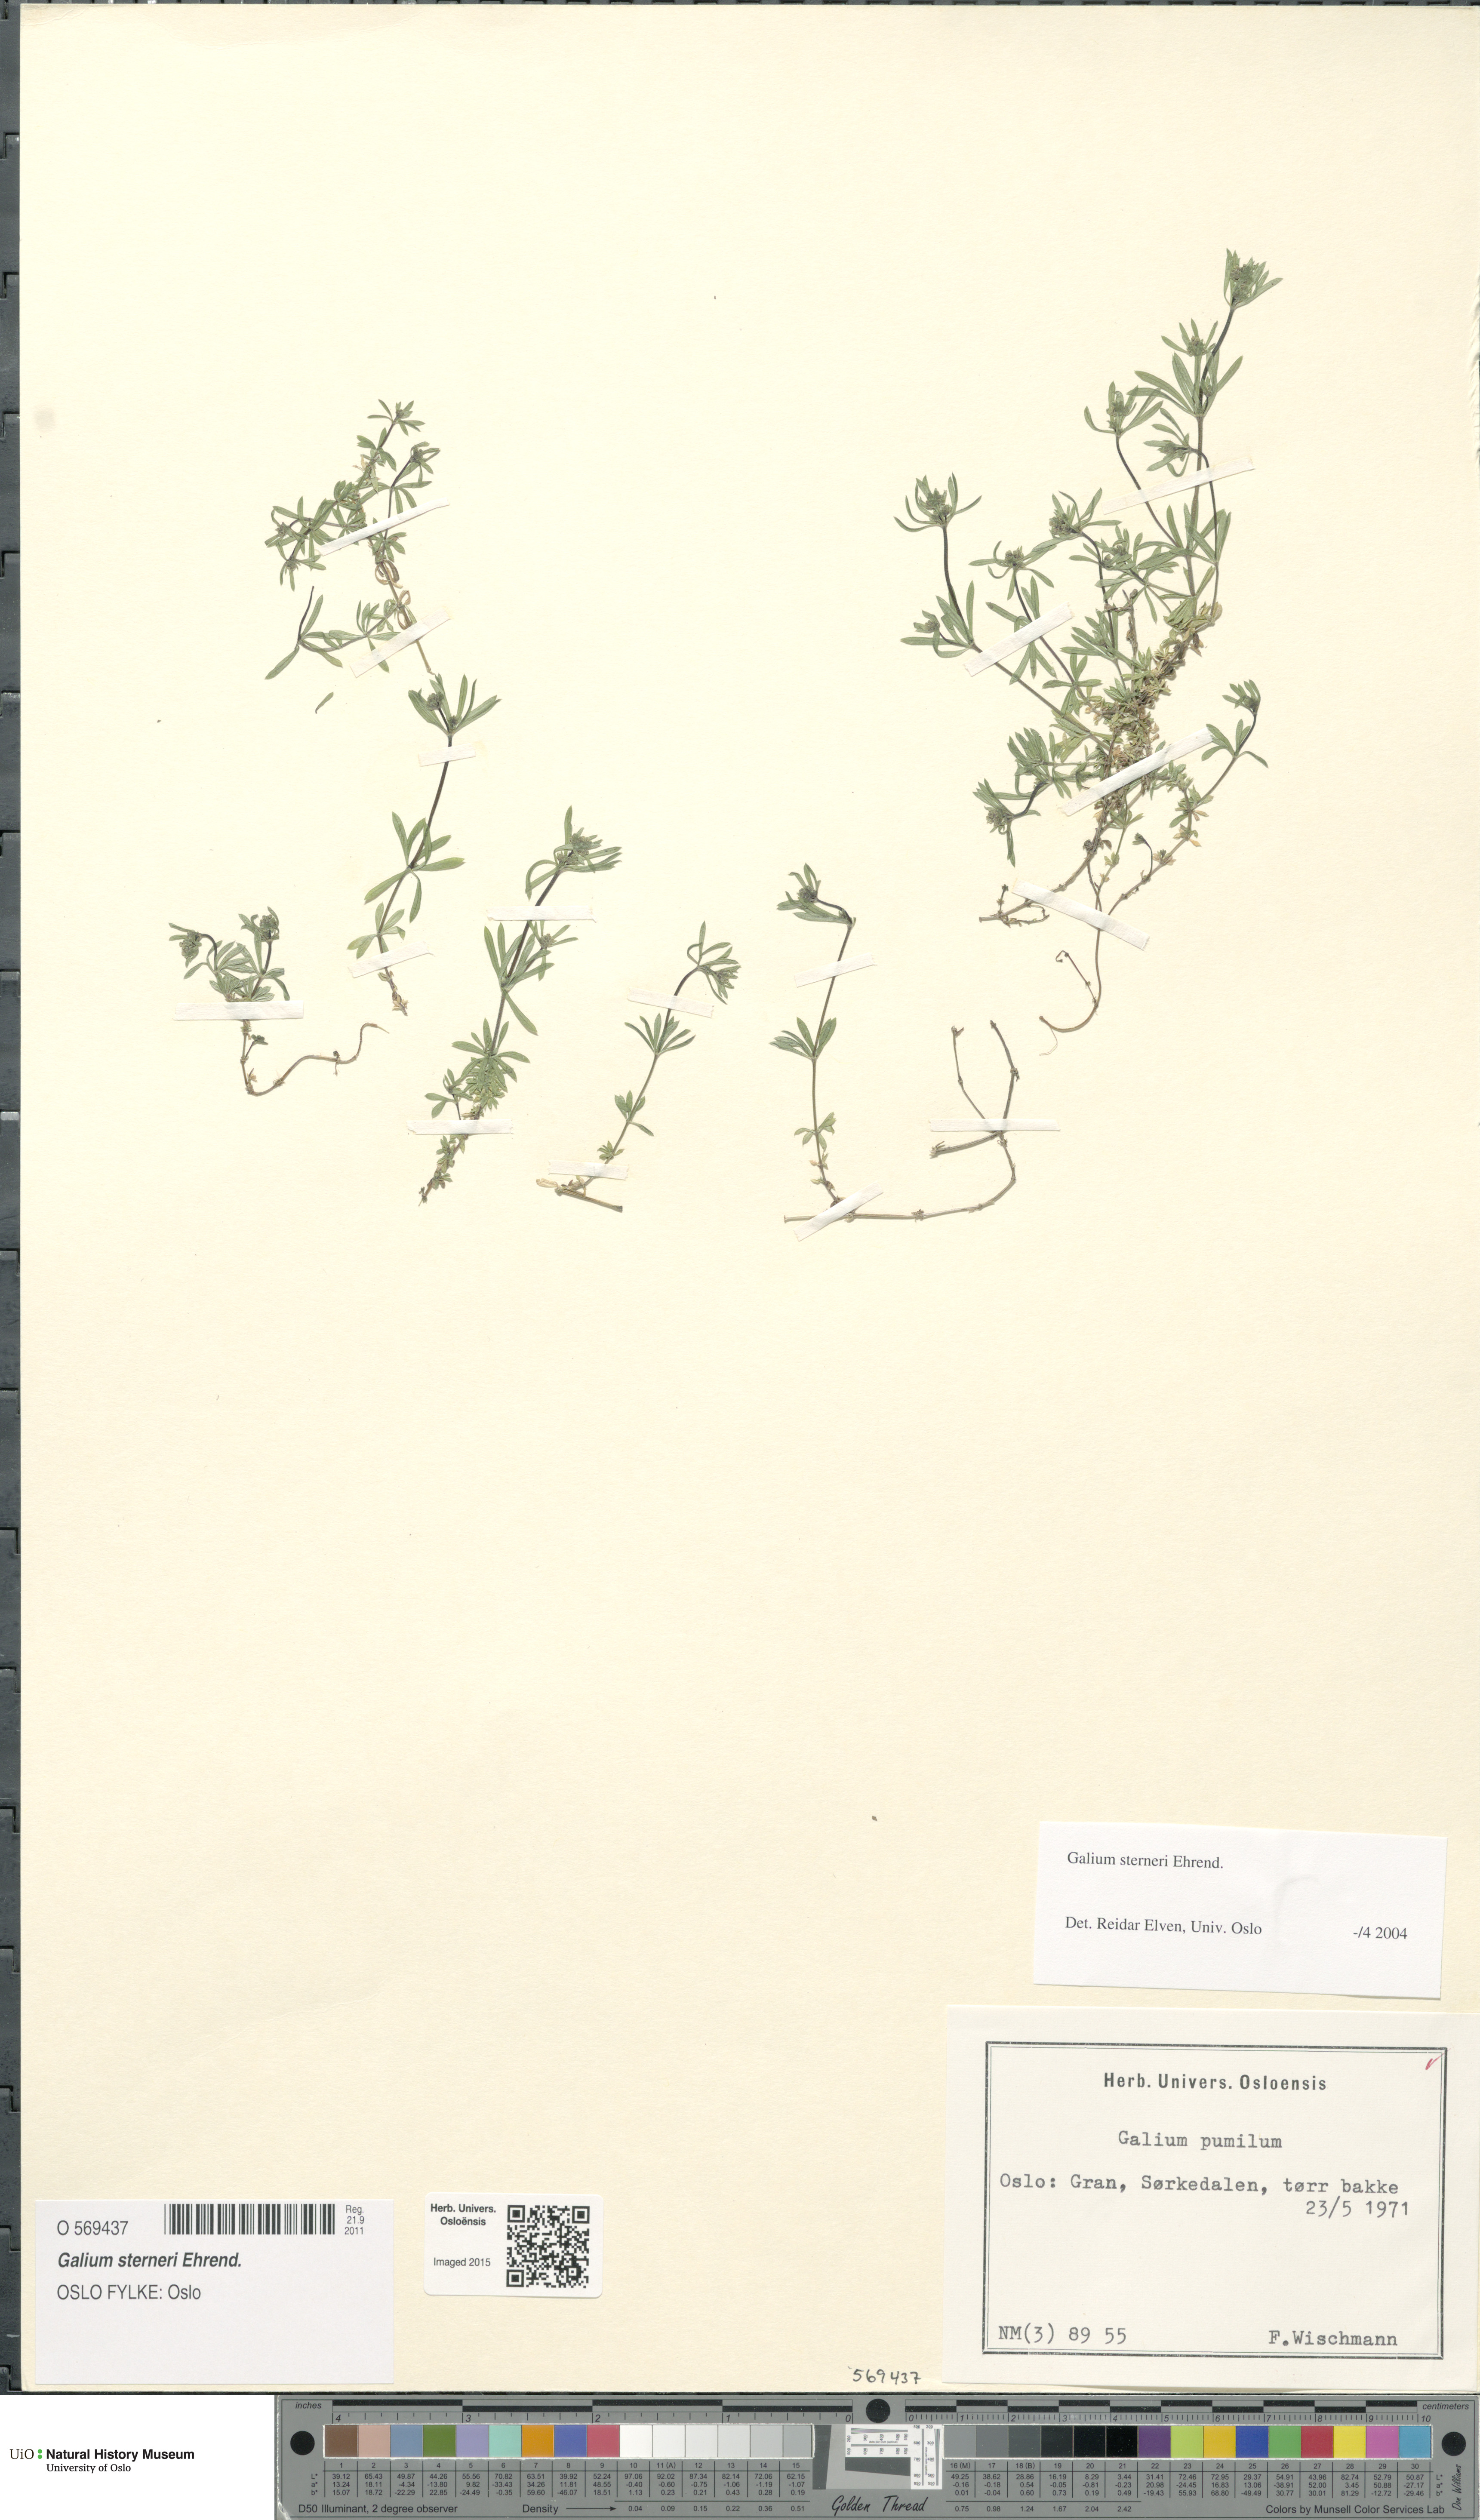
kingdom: Plantae
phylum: Tracheophyta
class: Magnoliopsida
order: Gentianales
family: Rubiaceae
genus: Galium
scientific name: Galium sterneri
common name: Limestone bedstraw
